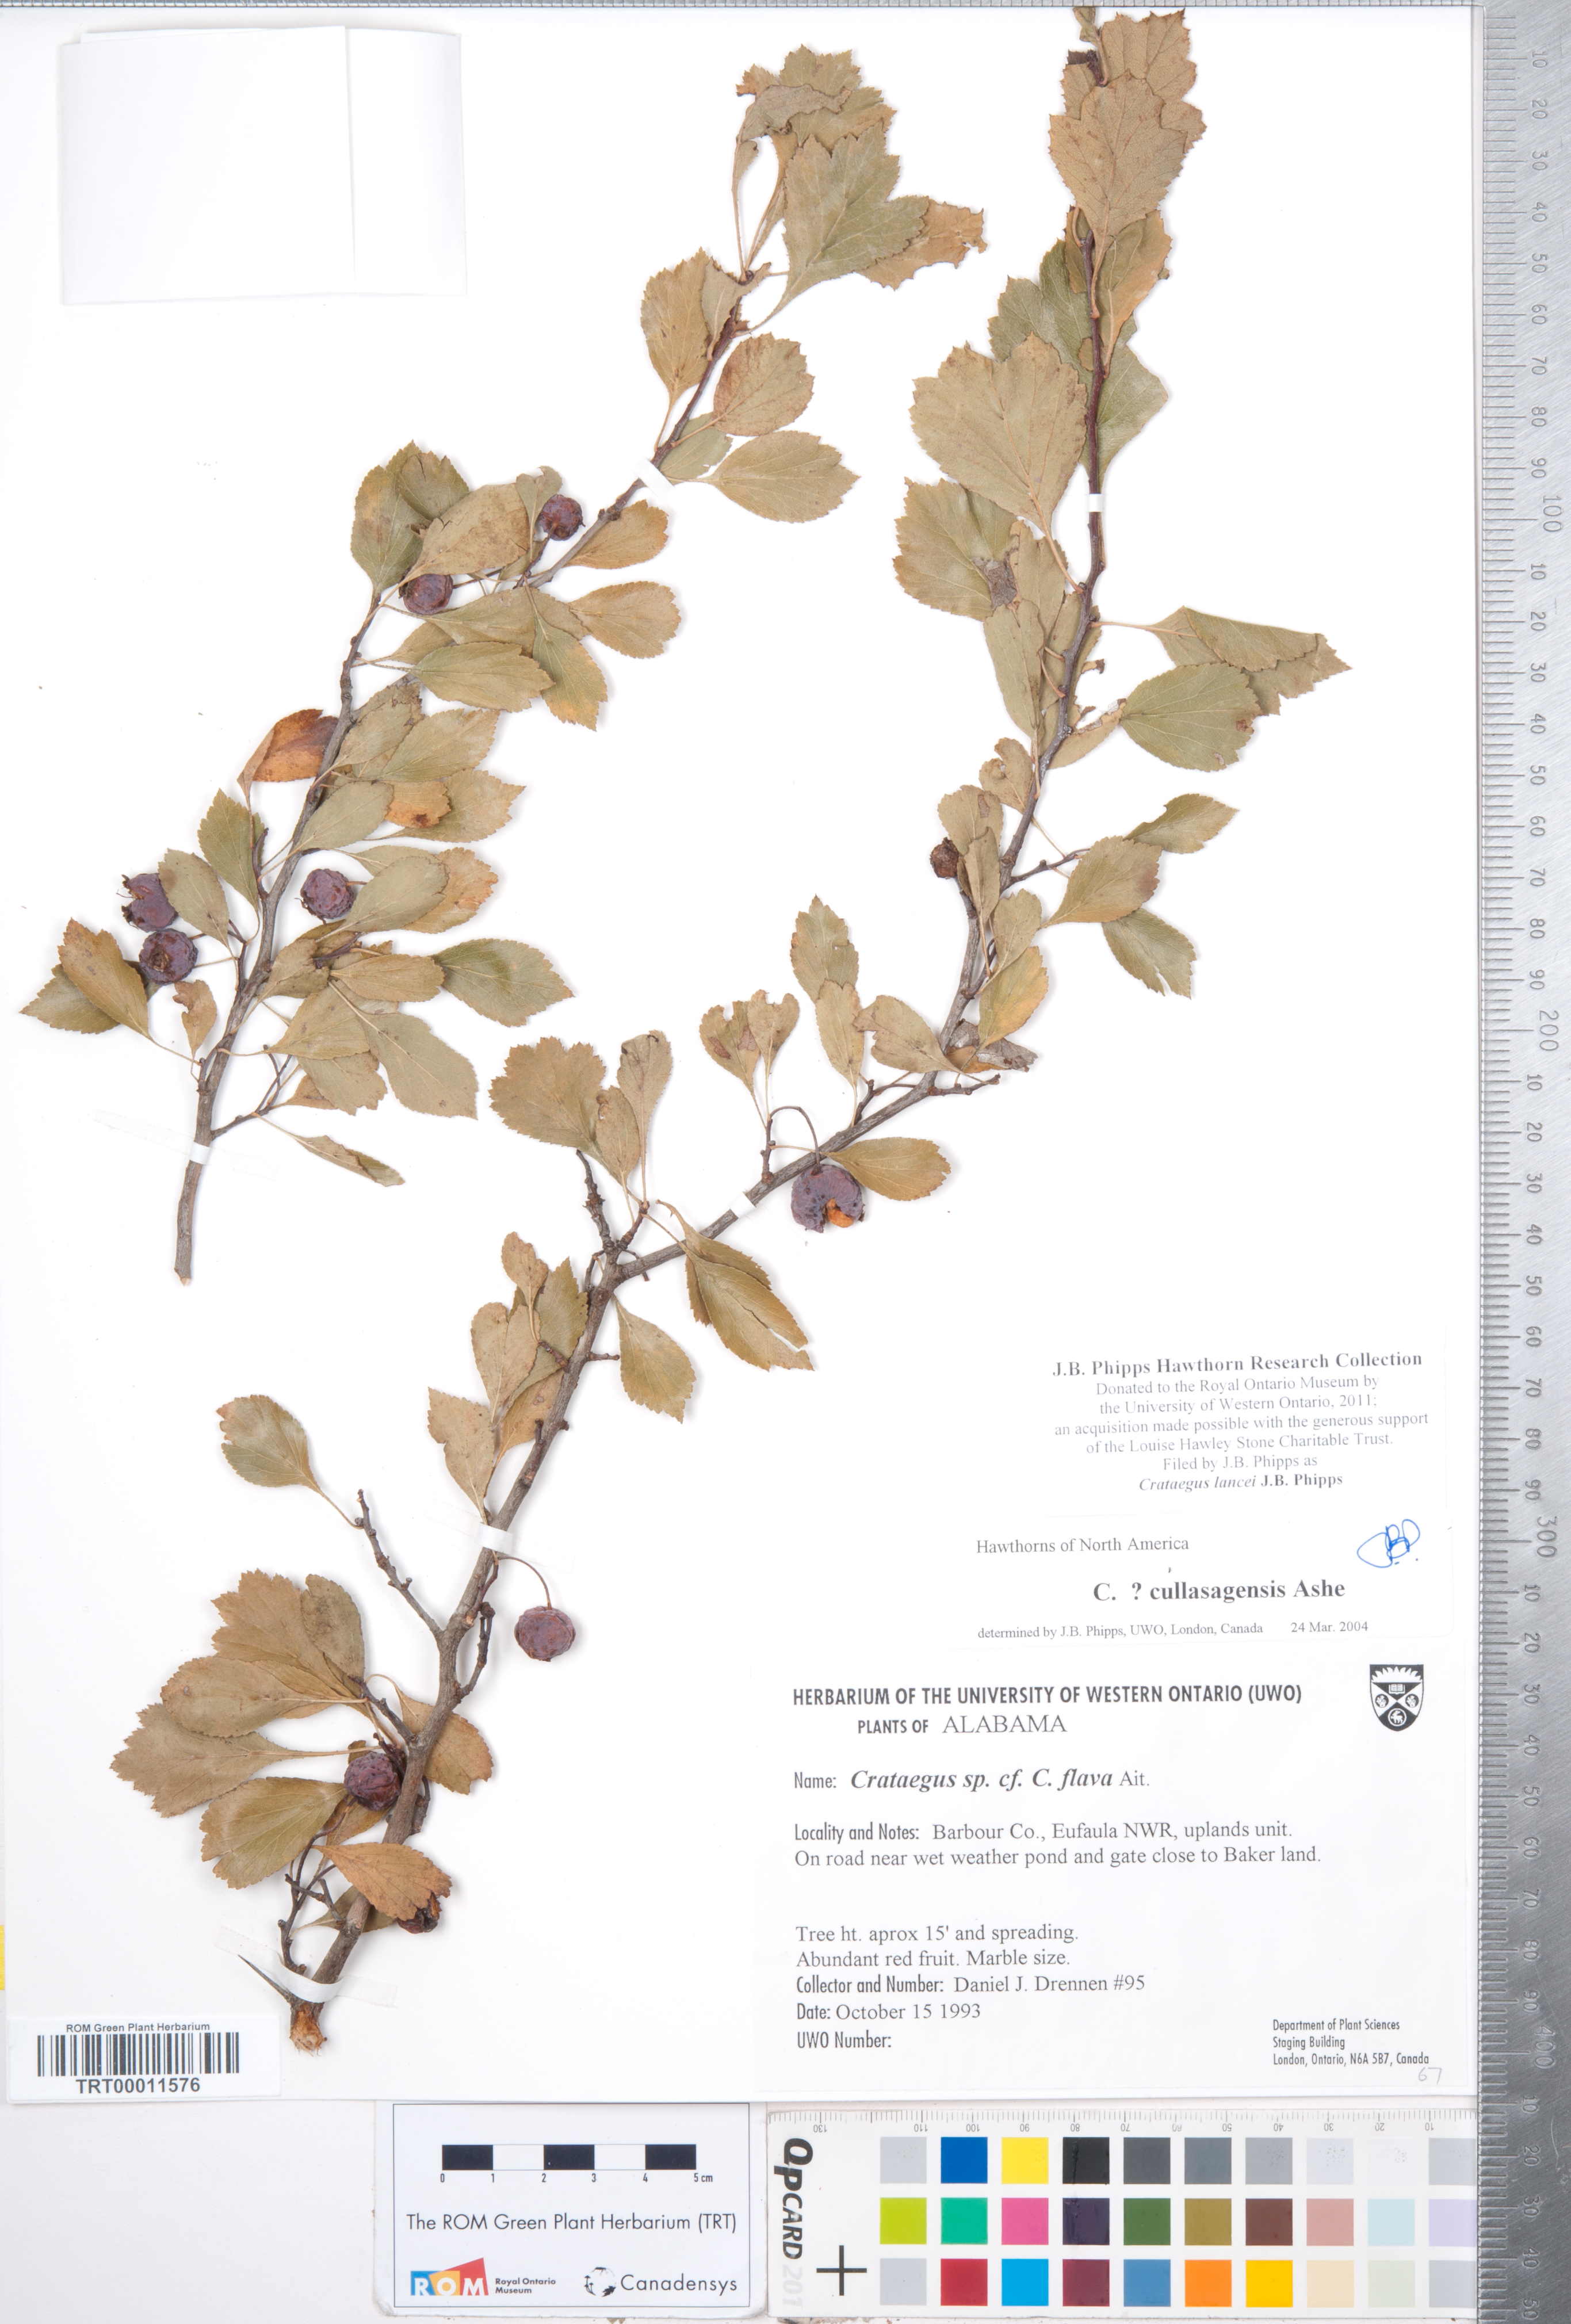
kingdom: Plantae
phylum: Tracheophyta
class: Magnoliopsida
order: Rosales
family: Rosaceae
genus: Crataegus
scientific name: Crataegus senta
